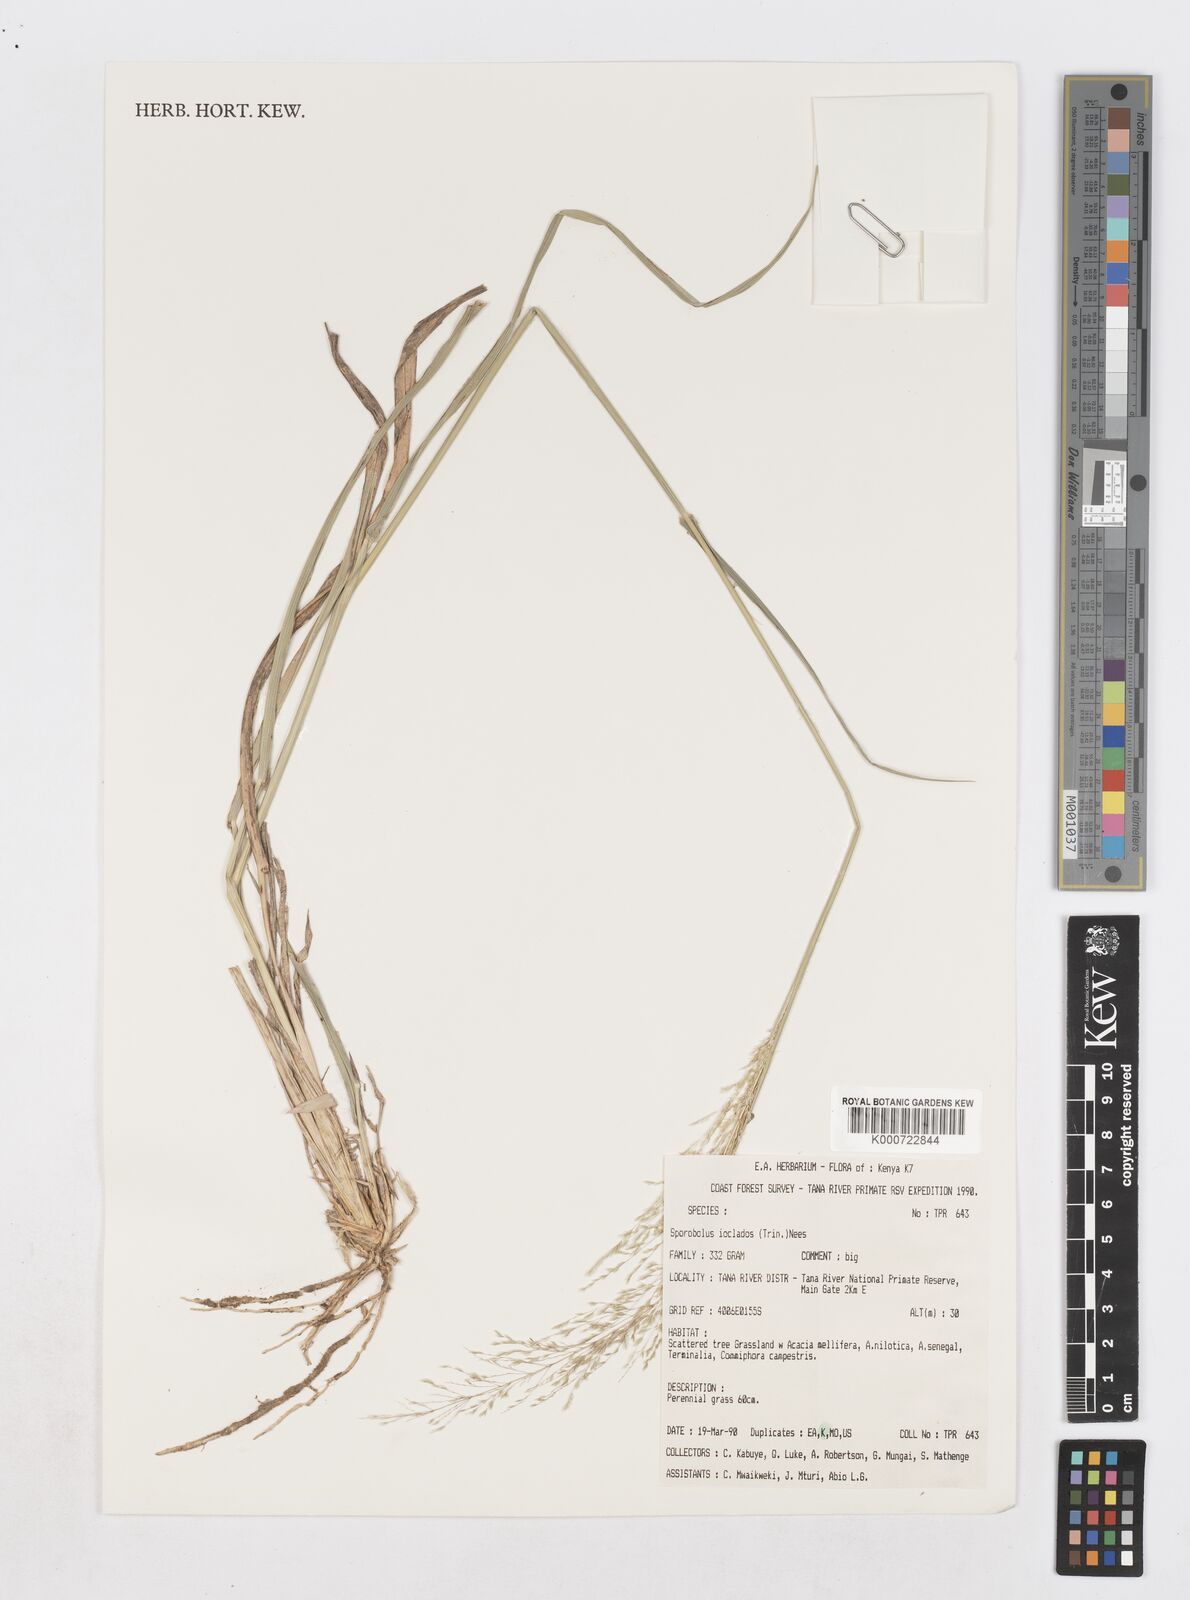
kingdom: Plantae
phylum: Tracheophyta
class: Liliopsida
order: Poales
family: Poaceae
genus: Sporobolus
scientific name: Sporobolus ioclados
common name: Pan dropseed
